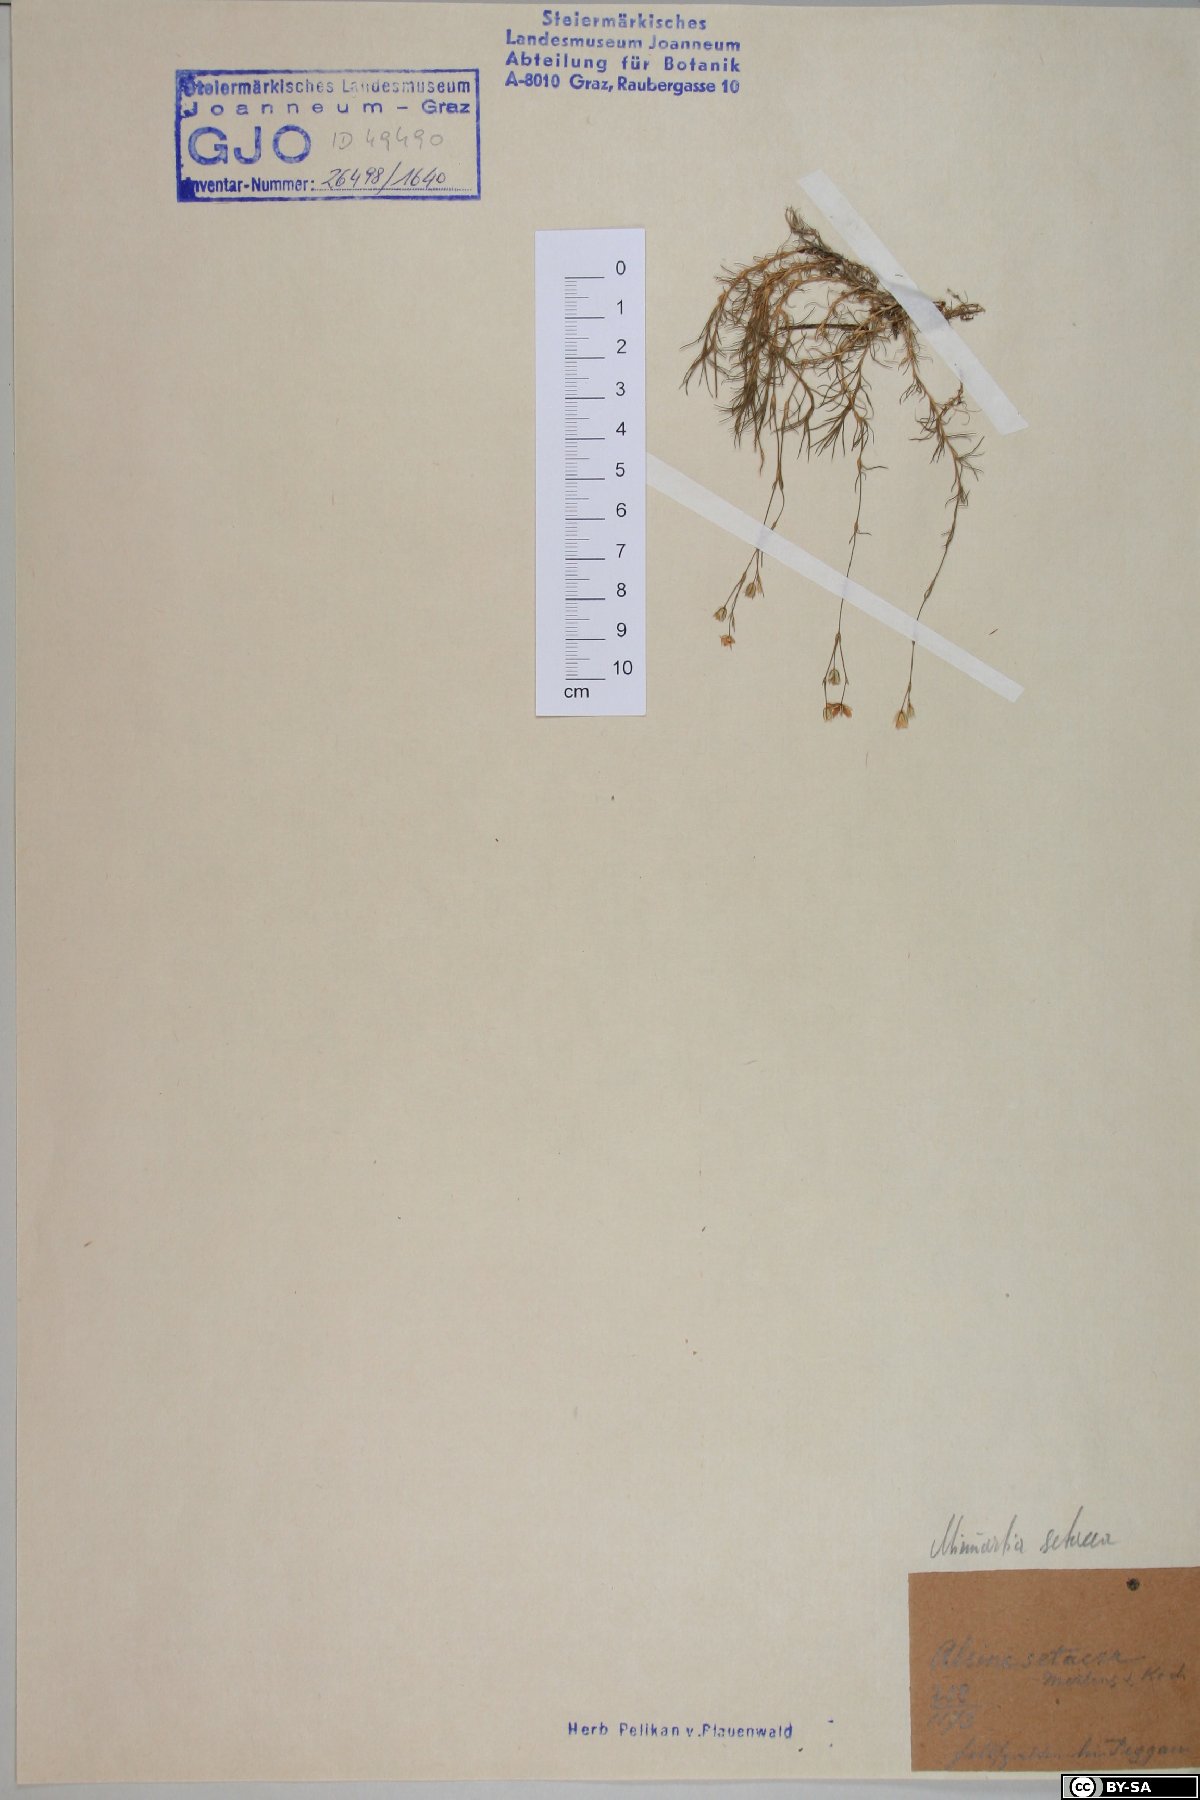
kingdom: Plantae
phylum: Tracheophyta
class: Magnoliopsida
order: Caryophyllales
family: Caryophyllaceae
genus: Minuartia
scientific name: Minuartia setacea
